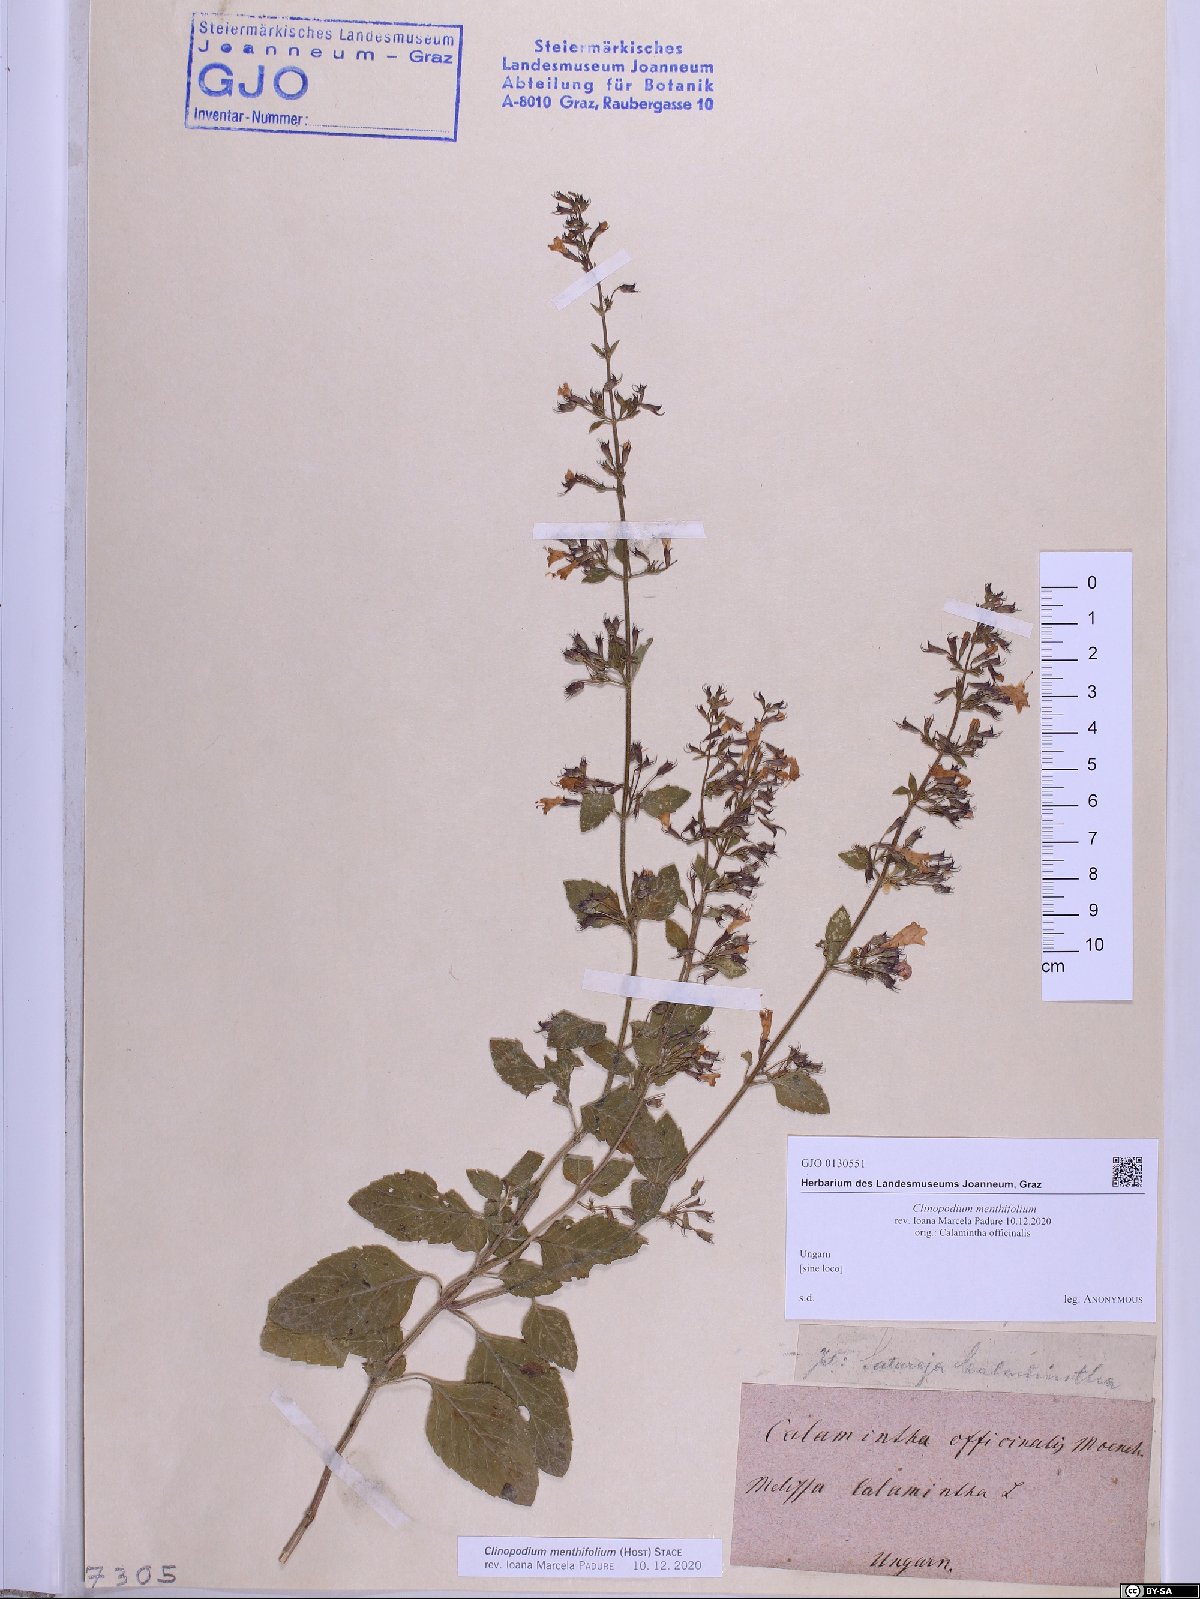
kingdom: Plantae
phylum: Tracheophyta
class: Magnoliopsida
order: Lamiales
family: Lamiaceae
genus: Clinopodium
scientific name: Clinopodium menthifolium
